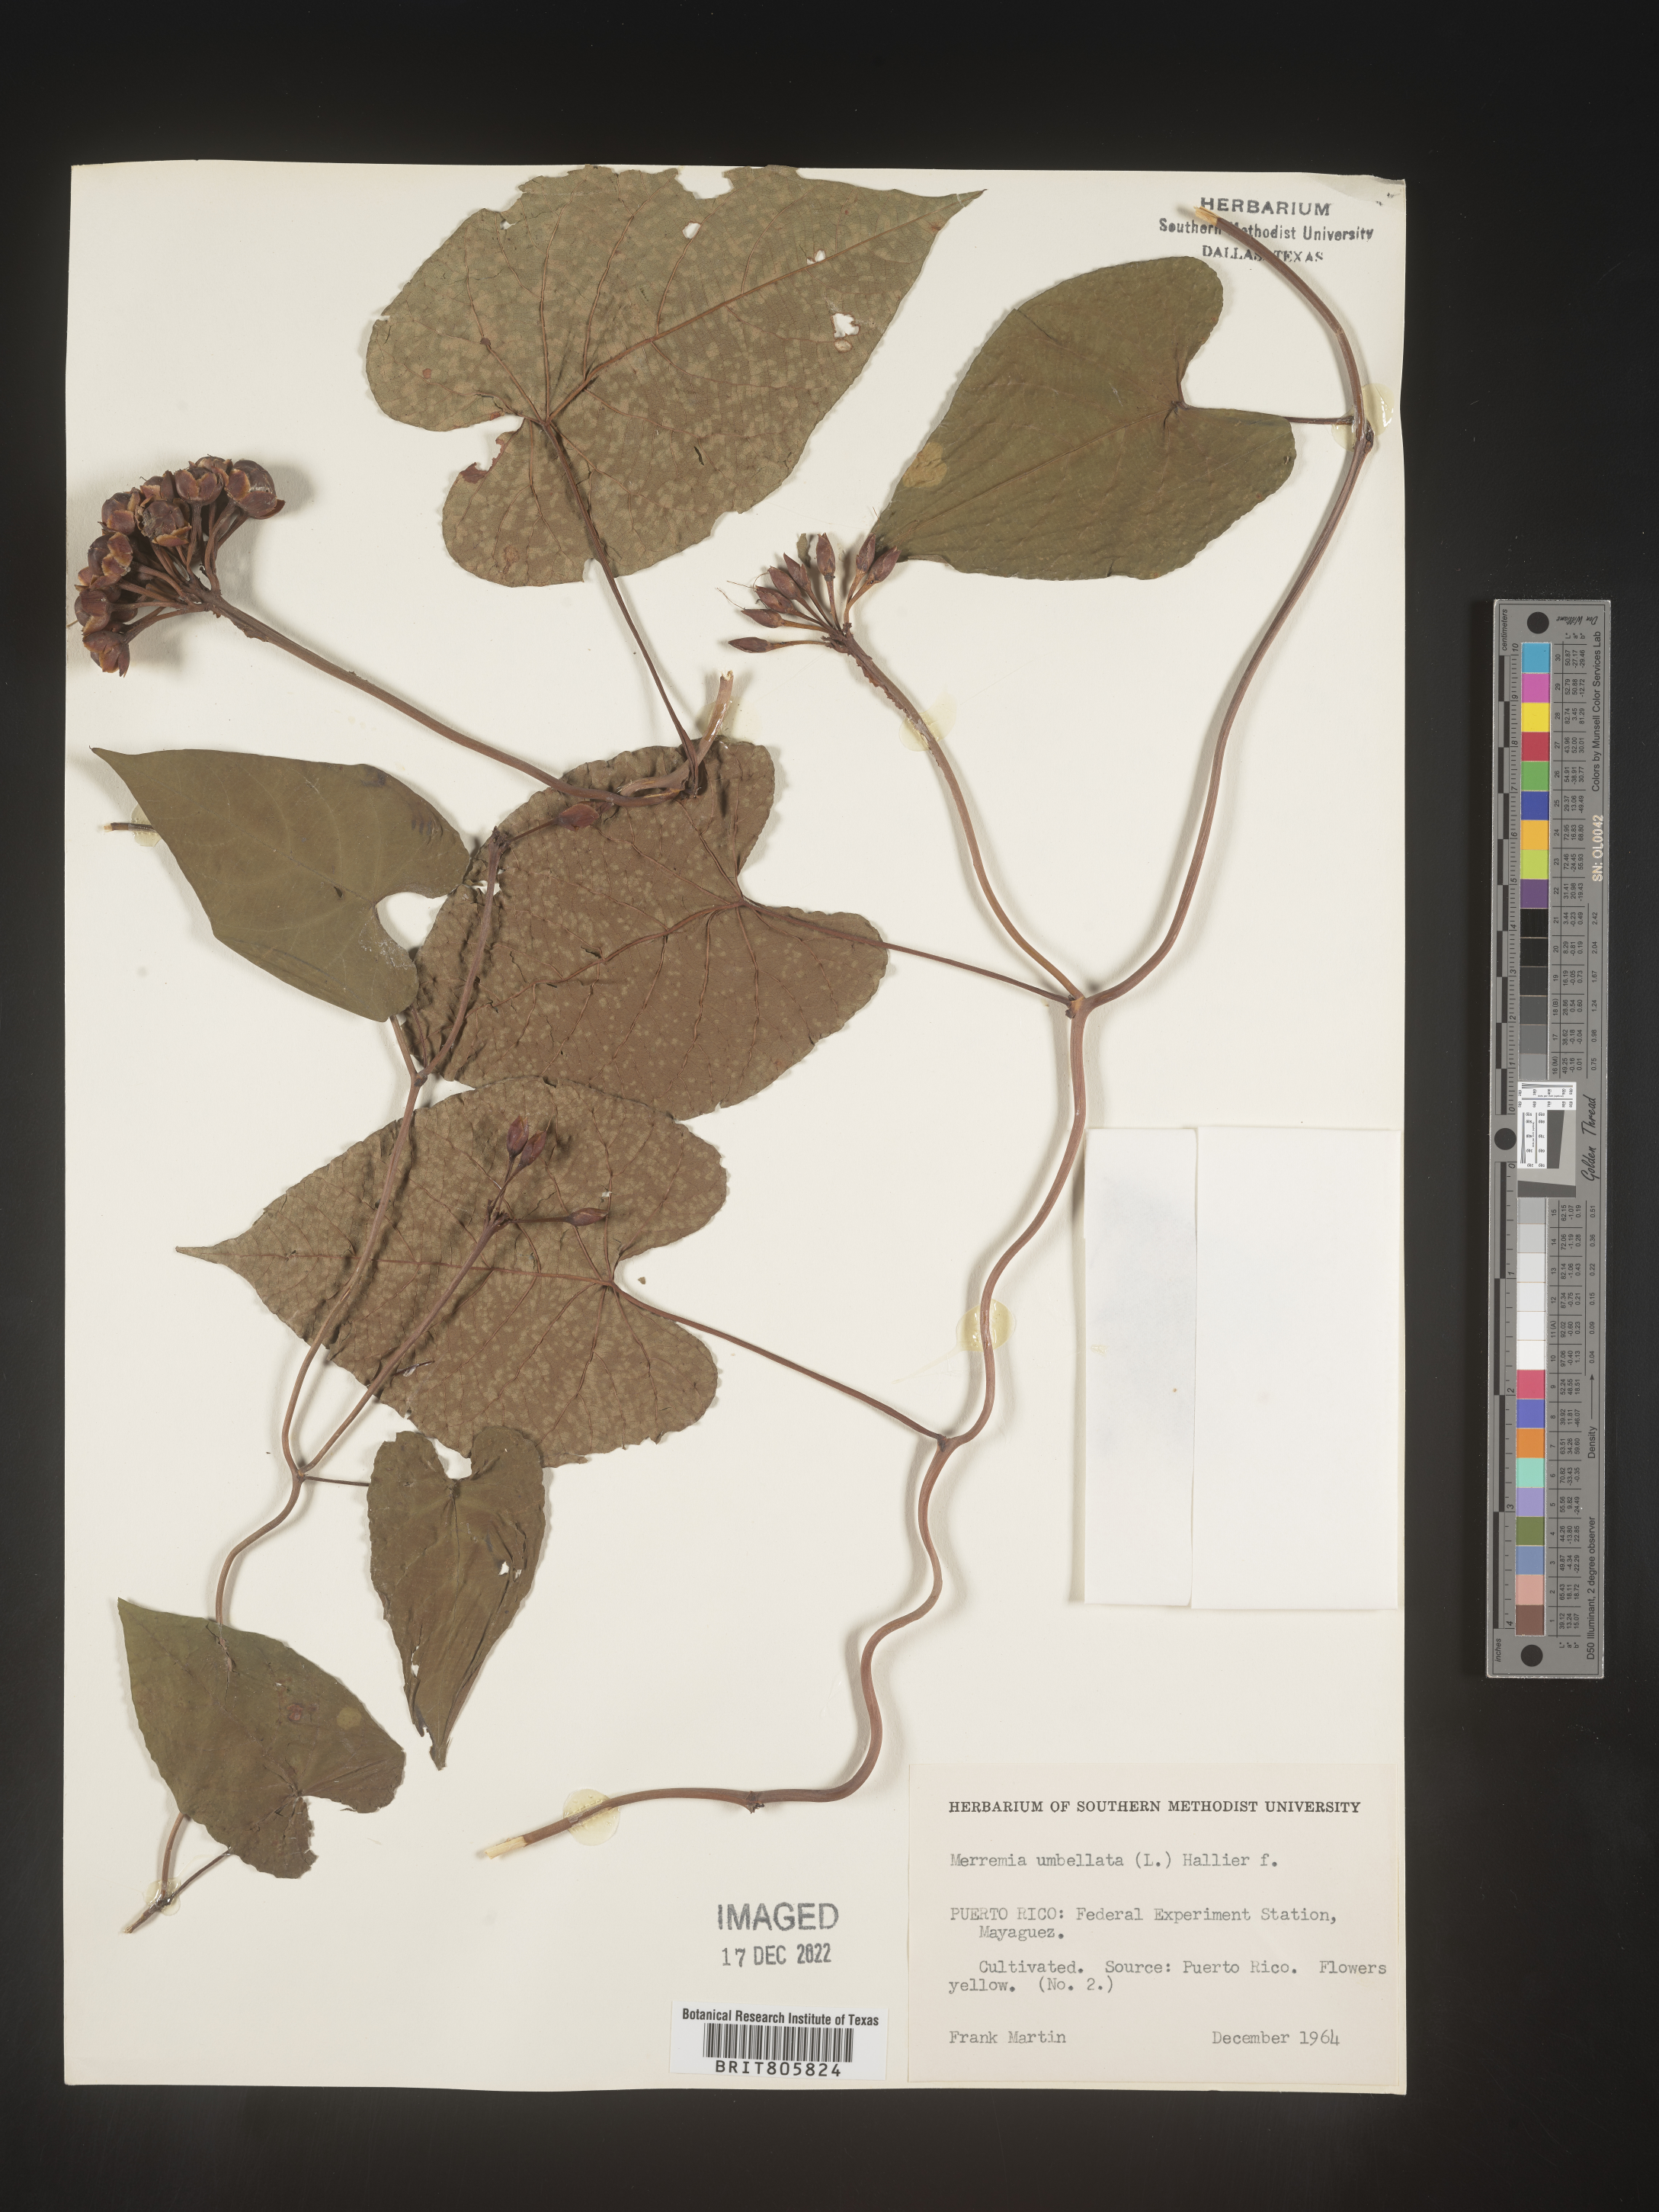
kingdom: Plantae
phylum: Tracheophyta
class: Magnoliopsida
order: Solanales
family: Convolvulaceae
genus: Merremia
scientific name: Merremia
